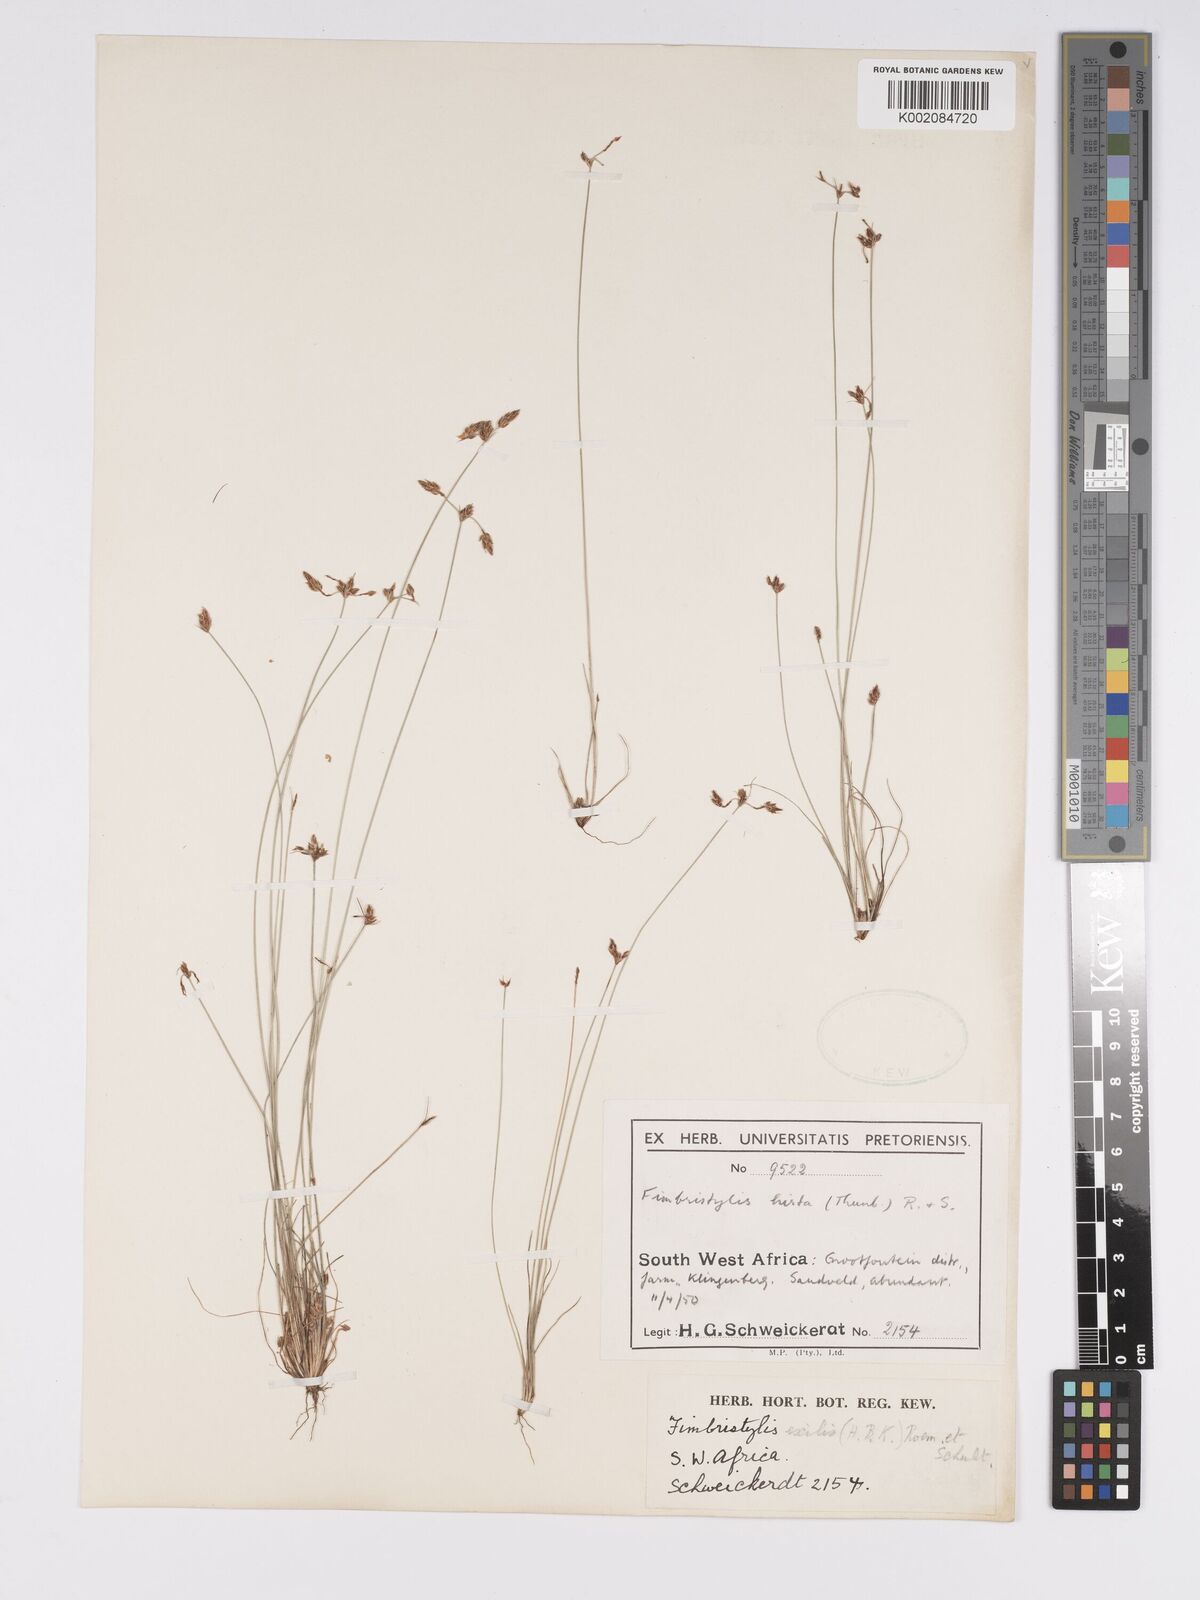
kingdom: Plantae
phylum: Tracheophyta
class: Liliopsida
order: Poales
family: Cyperaceae
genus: Bulbostylis
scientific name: Bulbostylis hispidula
